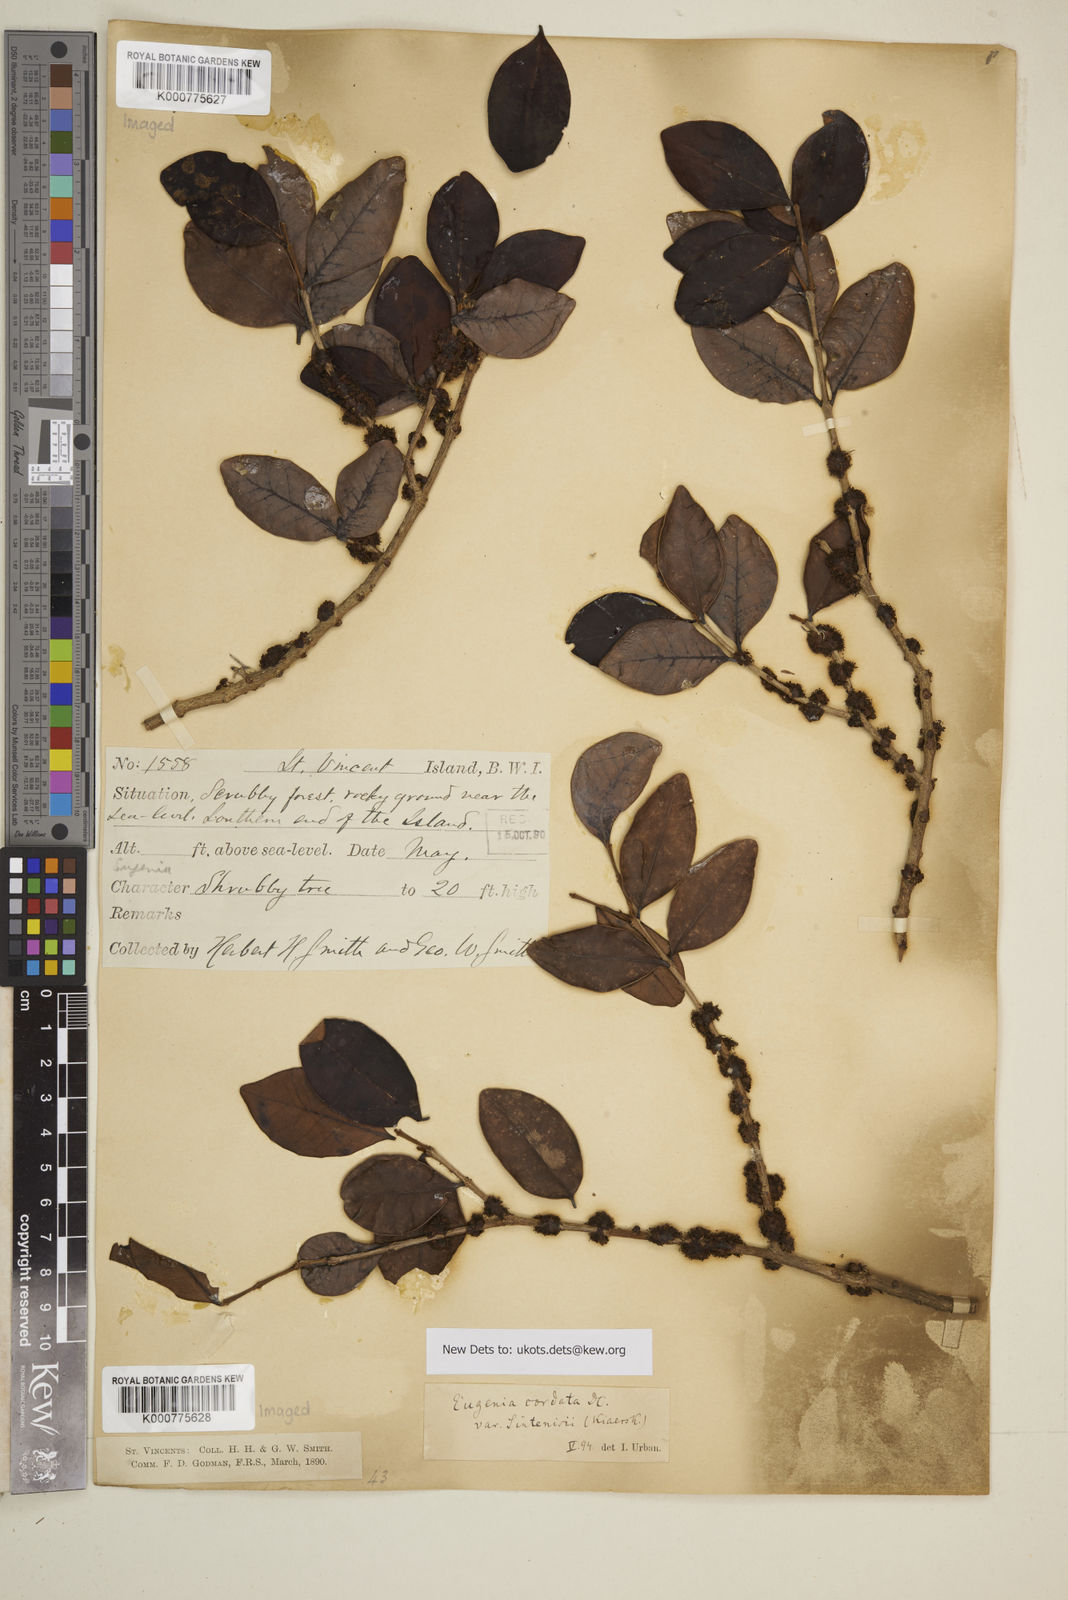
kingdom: Plantae
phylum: Tracheophyta
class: Magnoliopsida
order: Myrtales
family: Myrtaceae
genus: Eugenia
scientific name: Eugenia cordata
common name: Lathberry
